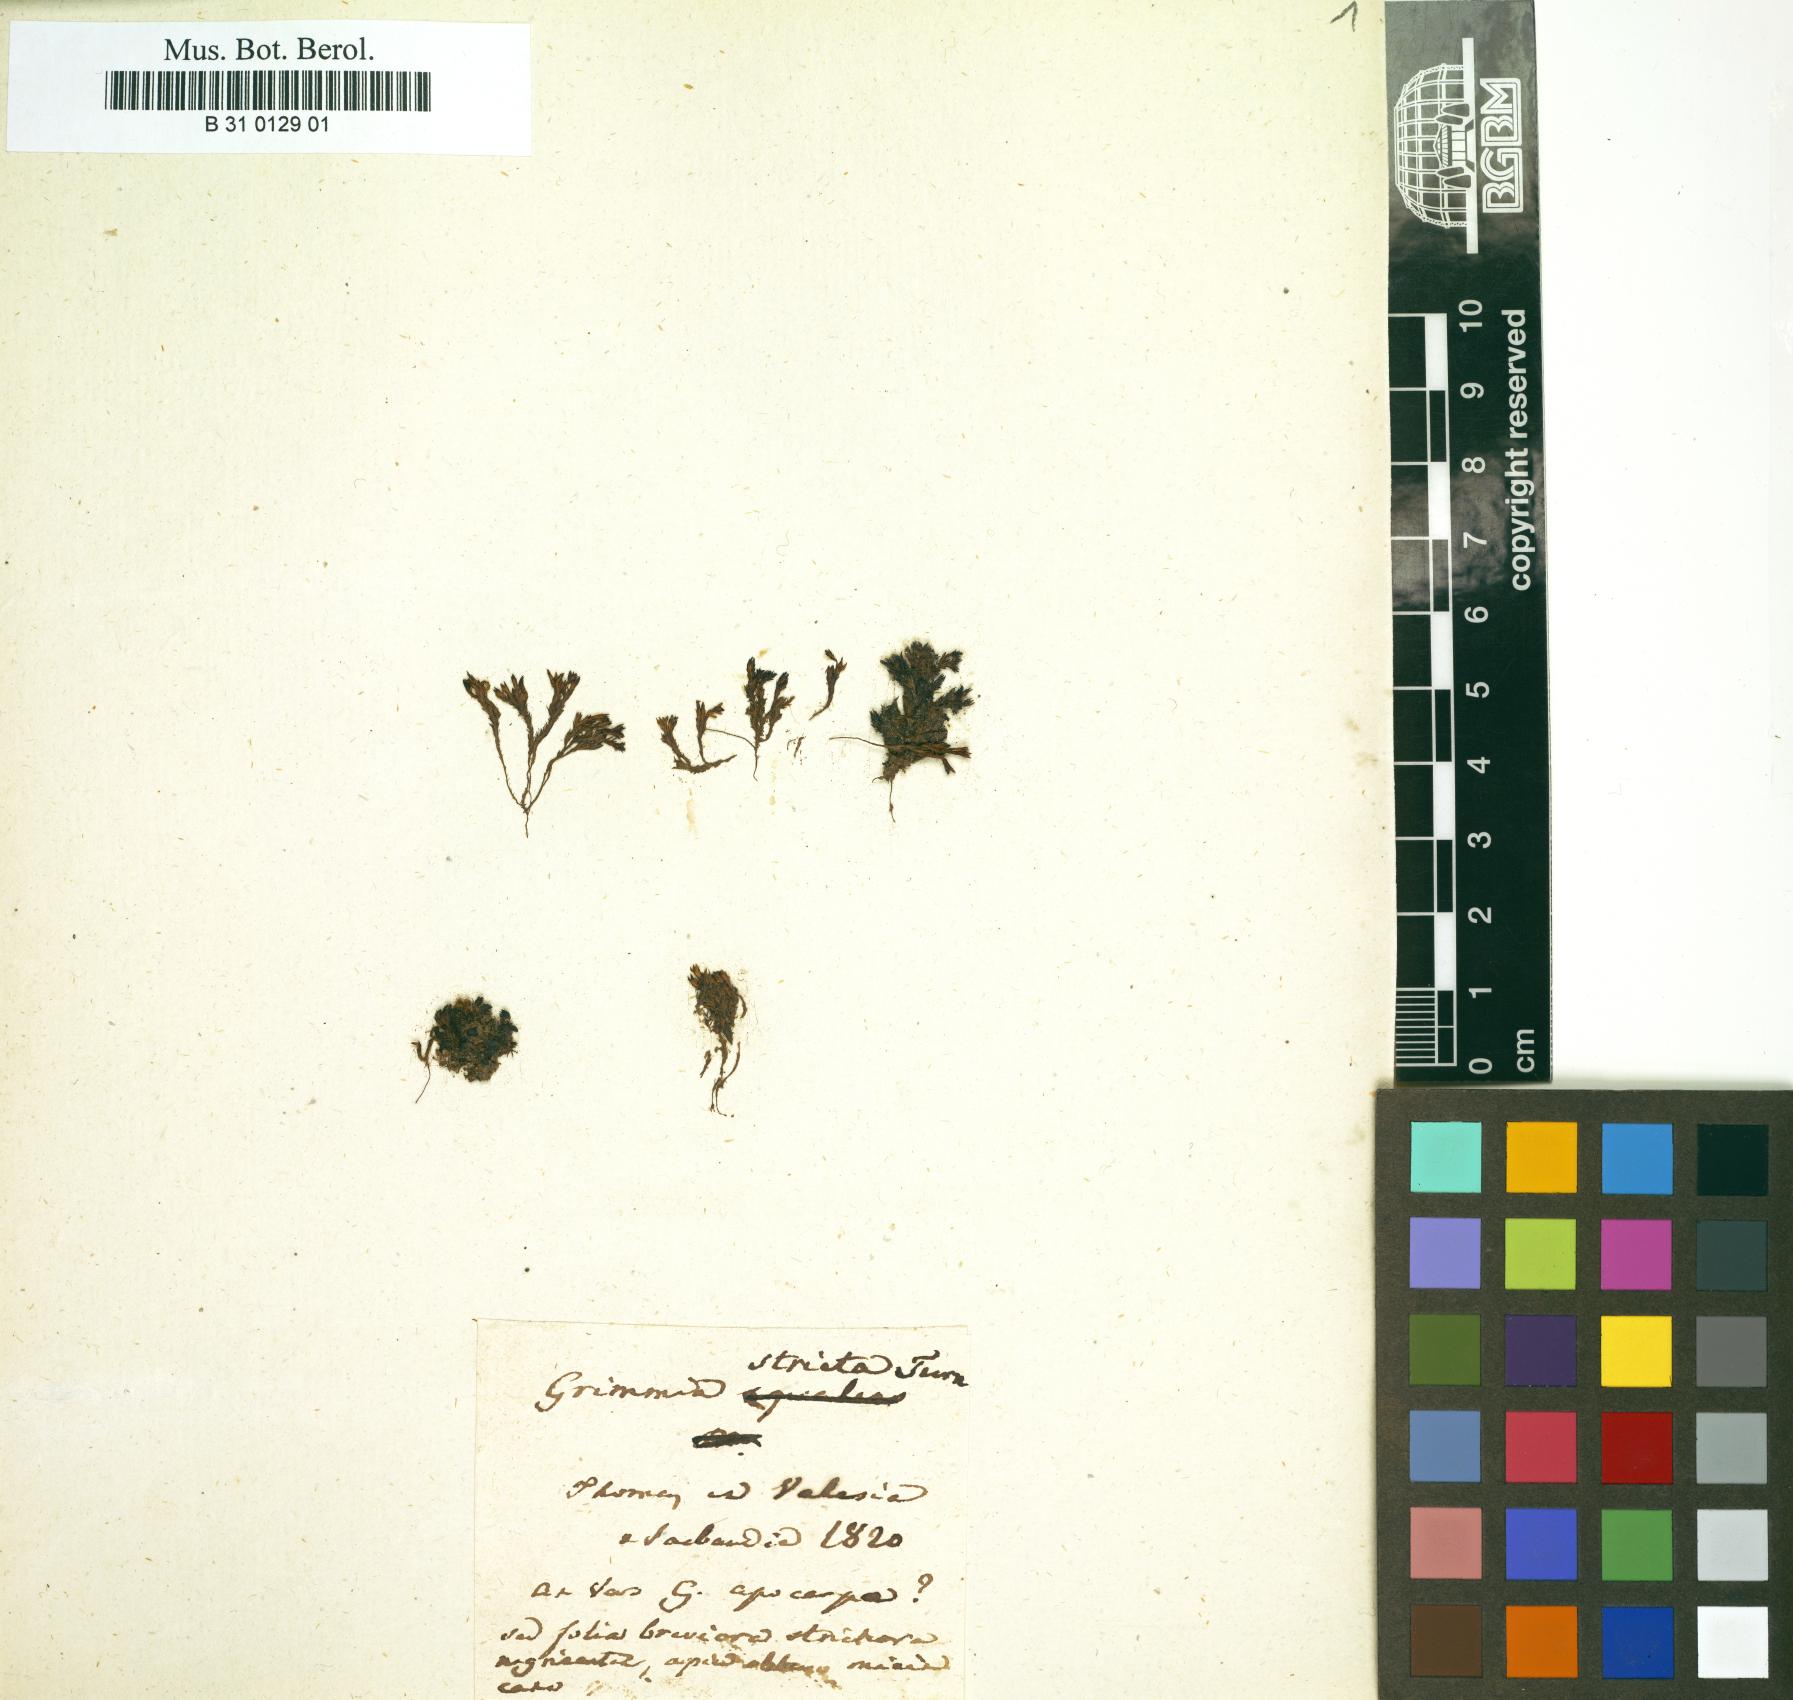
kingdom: Plantae
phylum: Bryophyta
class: Bryopsida
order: Grimmiales
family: Grimmiaceae
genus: Schistidium
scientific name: Schistidium strictum
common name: Upright brown grimmia
